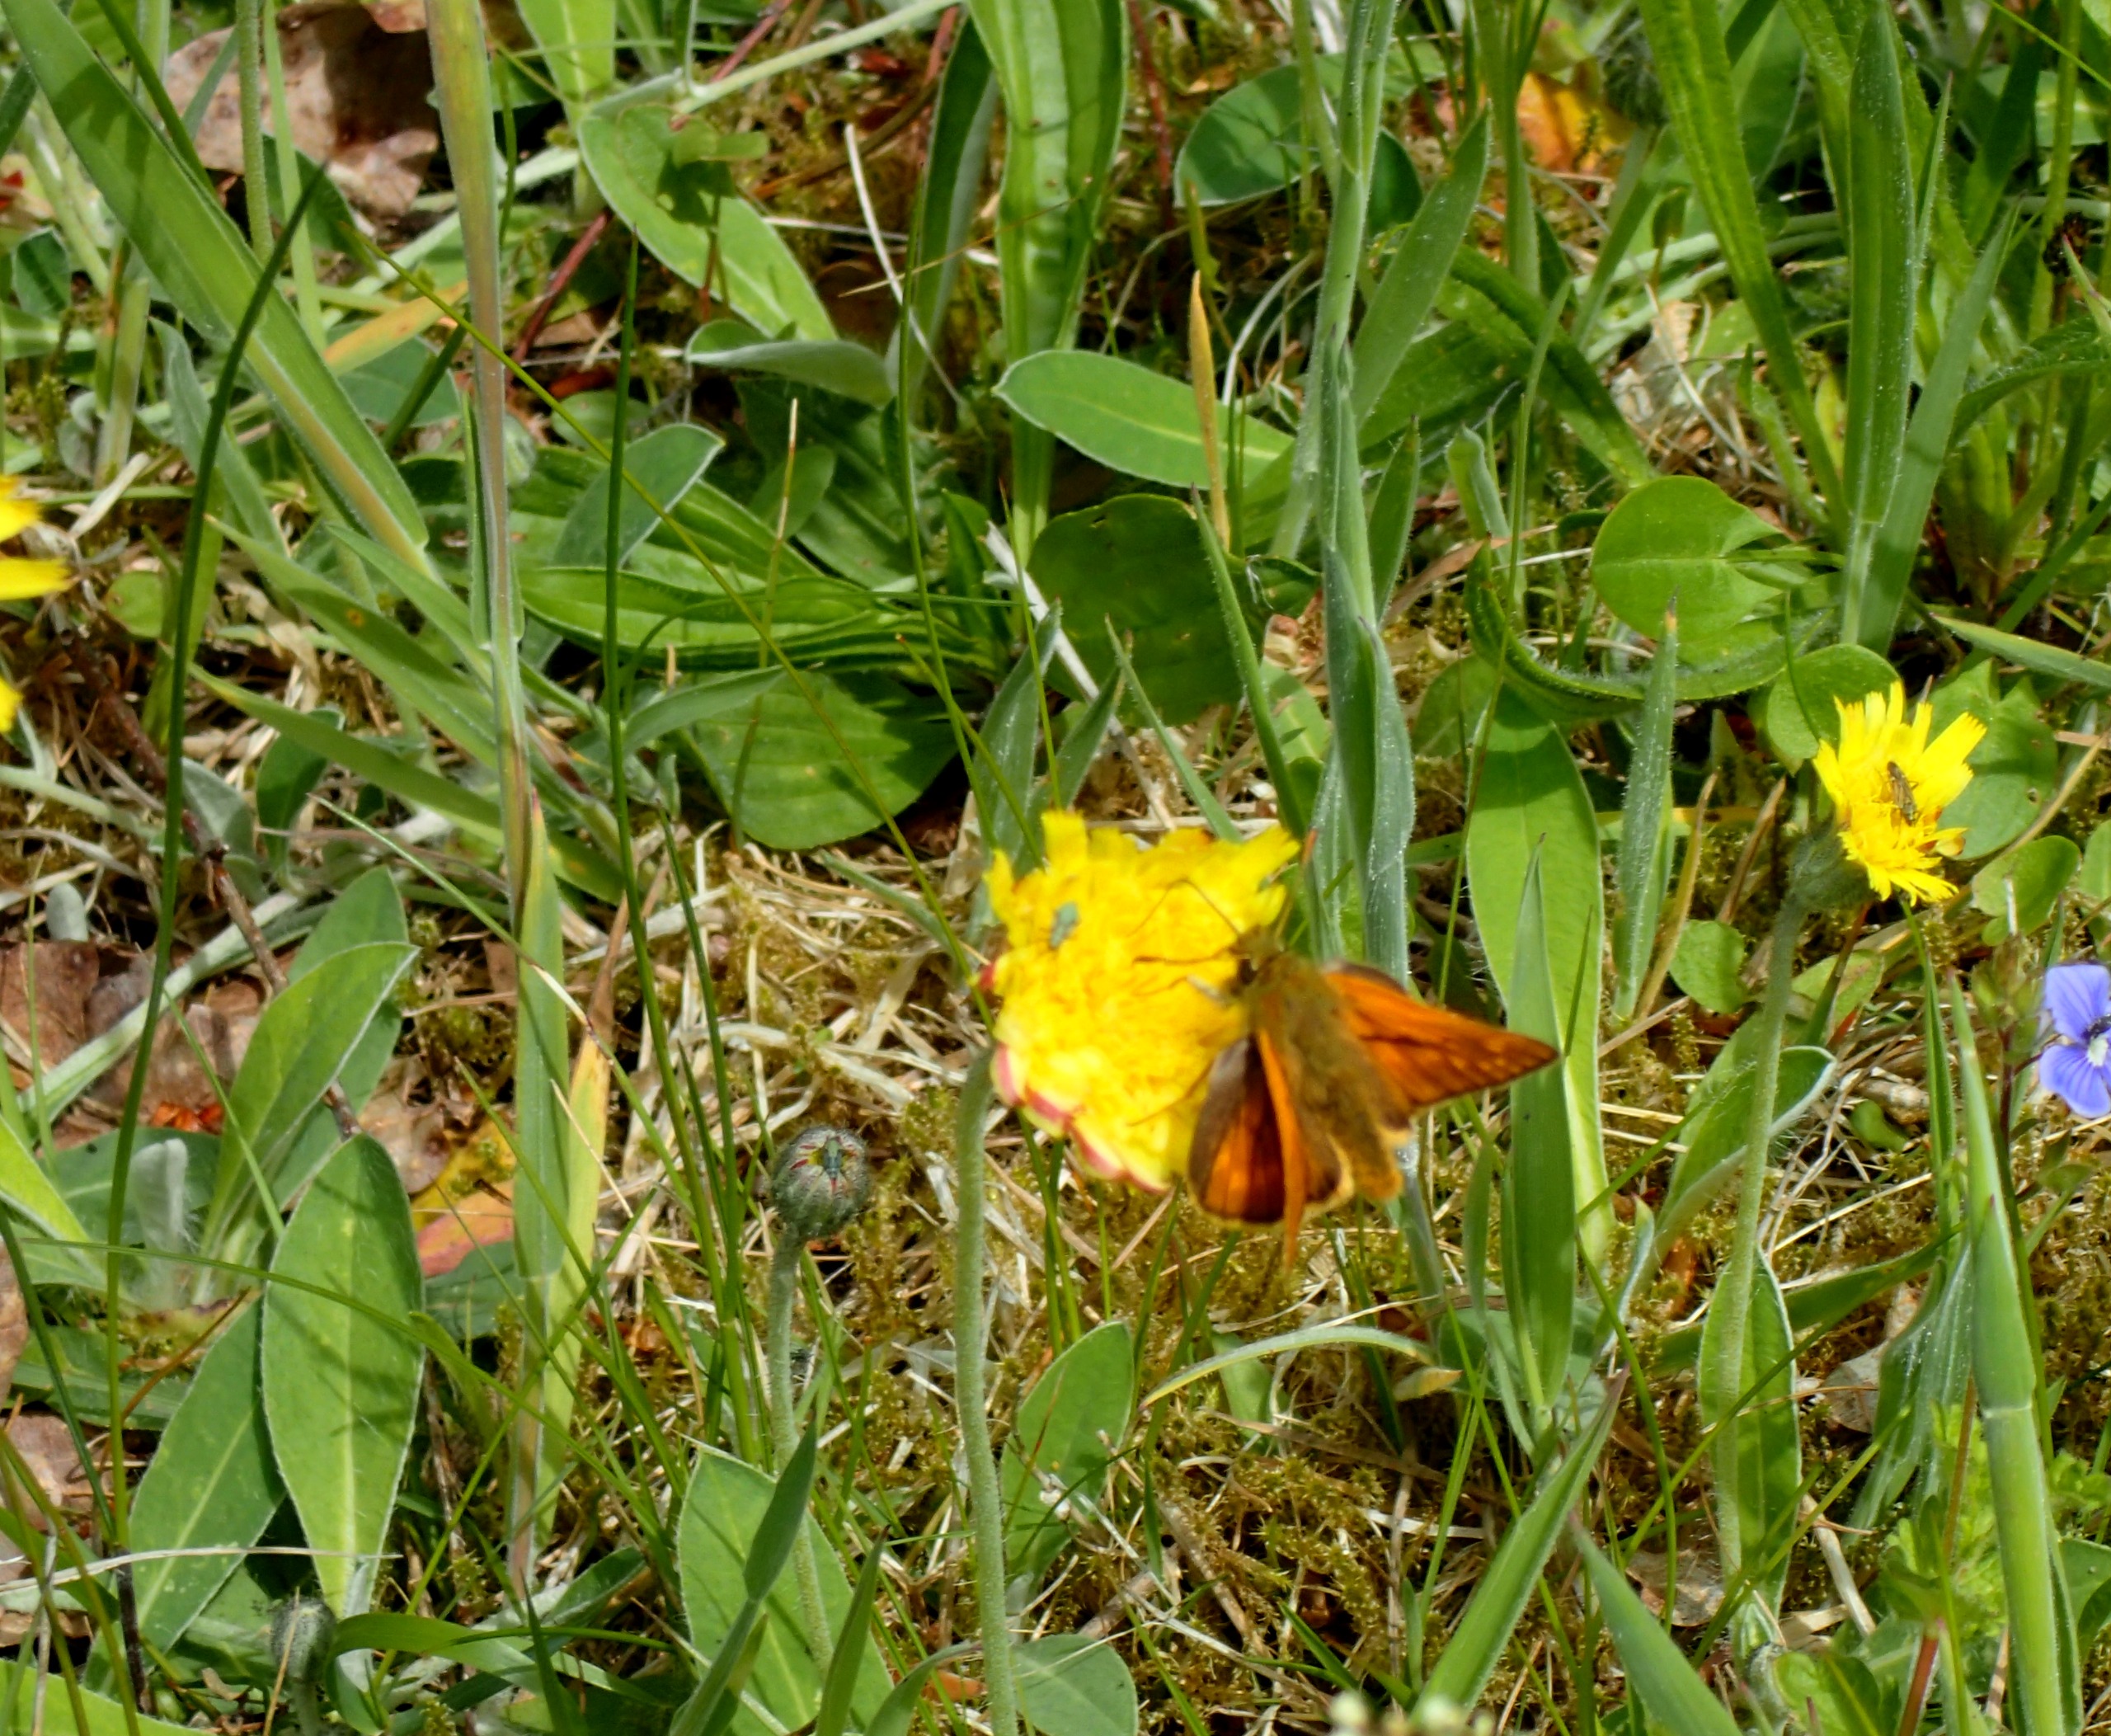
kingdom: Animalia
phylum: Arthropoda
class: Insecta
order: Lepidoptera
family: Hesperiidae
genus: Ochlodes
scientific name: Ochlodes venata
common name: Stor bredpande
